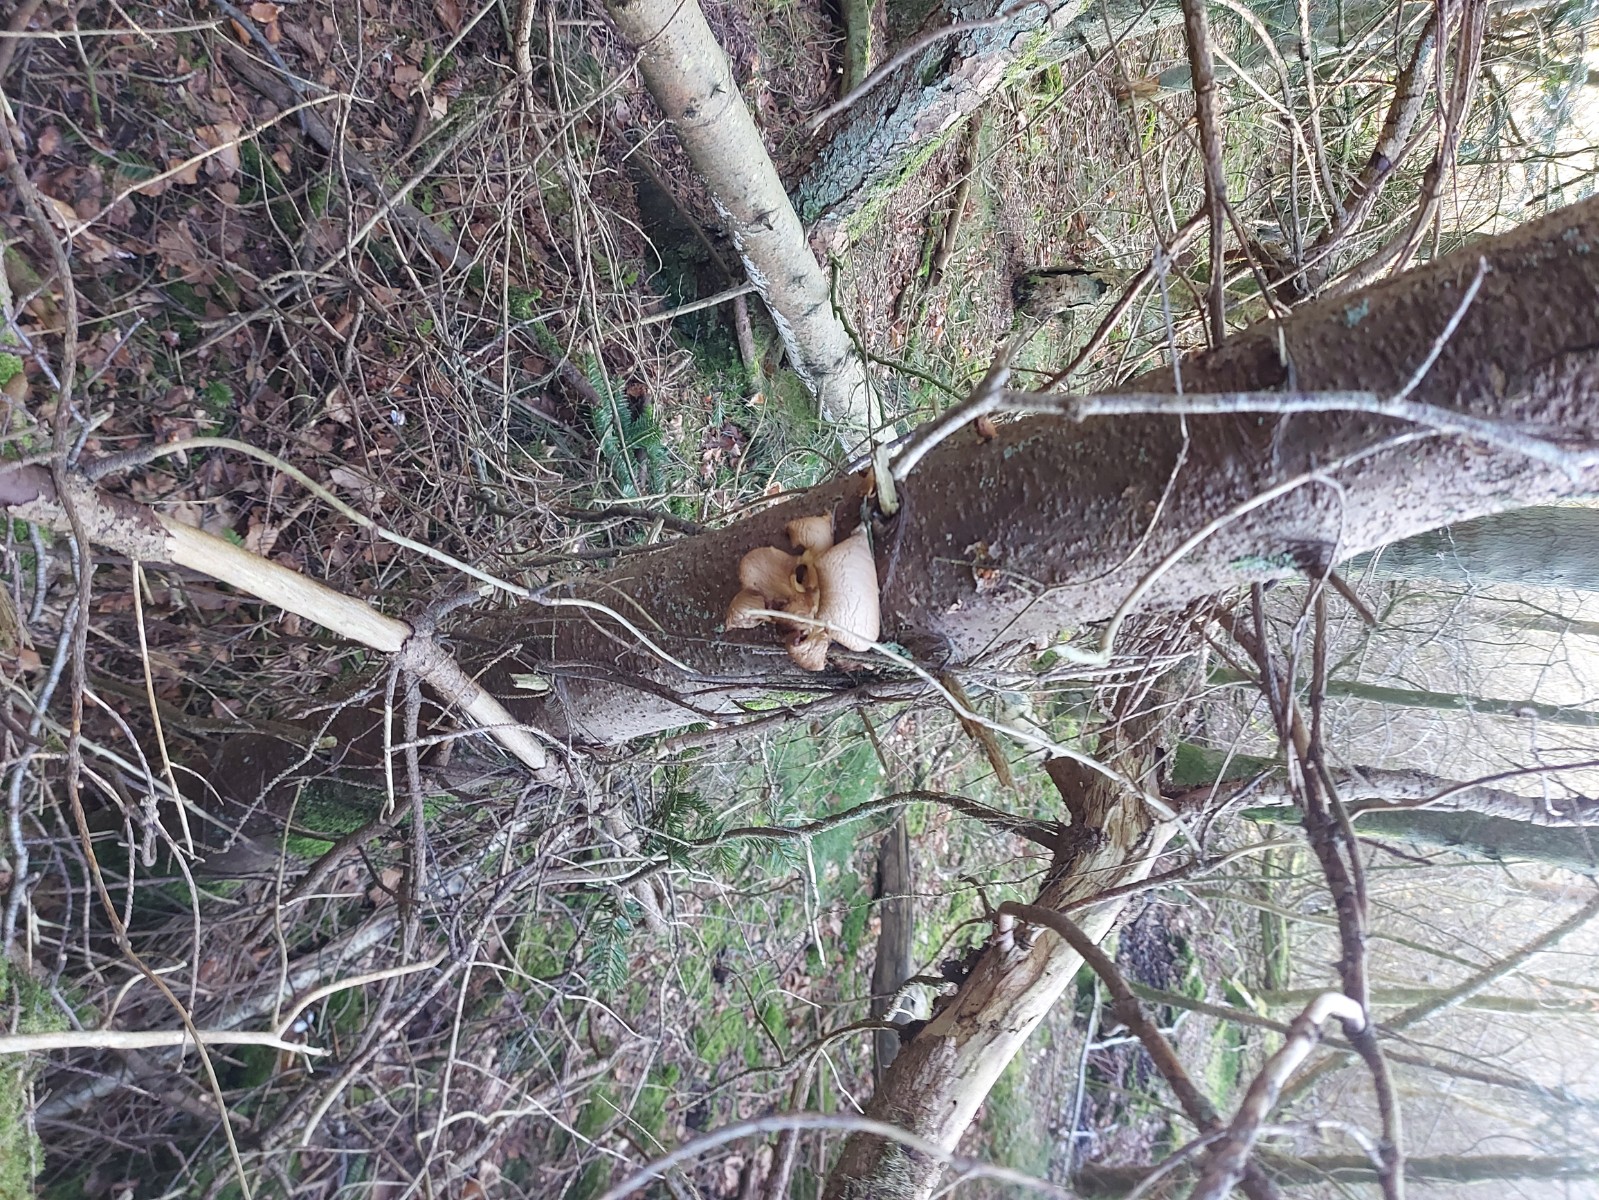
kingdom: Fungi
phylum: Basidiomycota
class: Agaricomycetes
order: Agaricales
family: Pleurotaceae
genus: Pleurotus
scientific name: Pleurotus ostreatus
